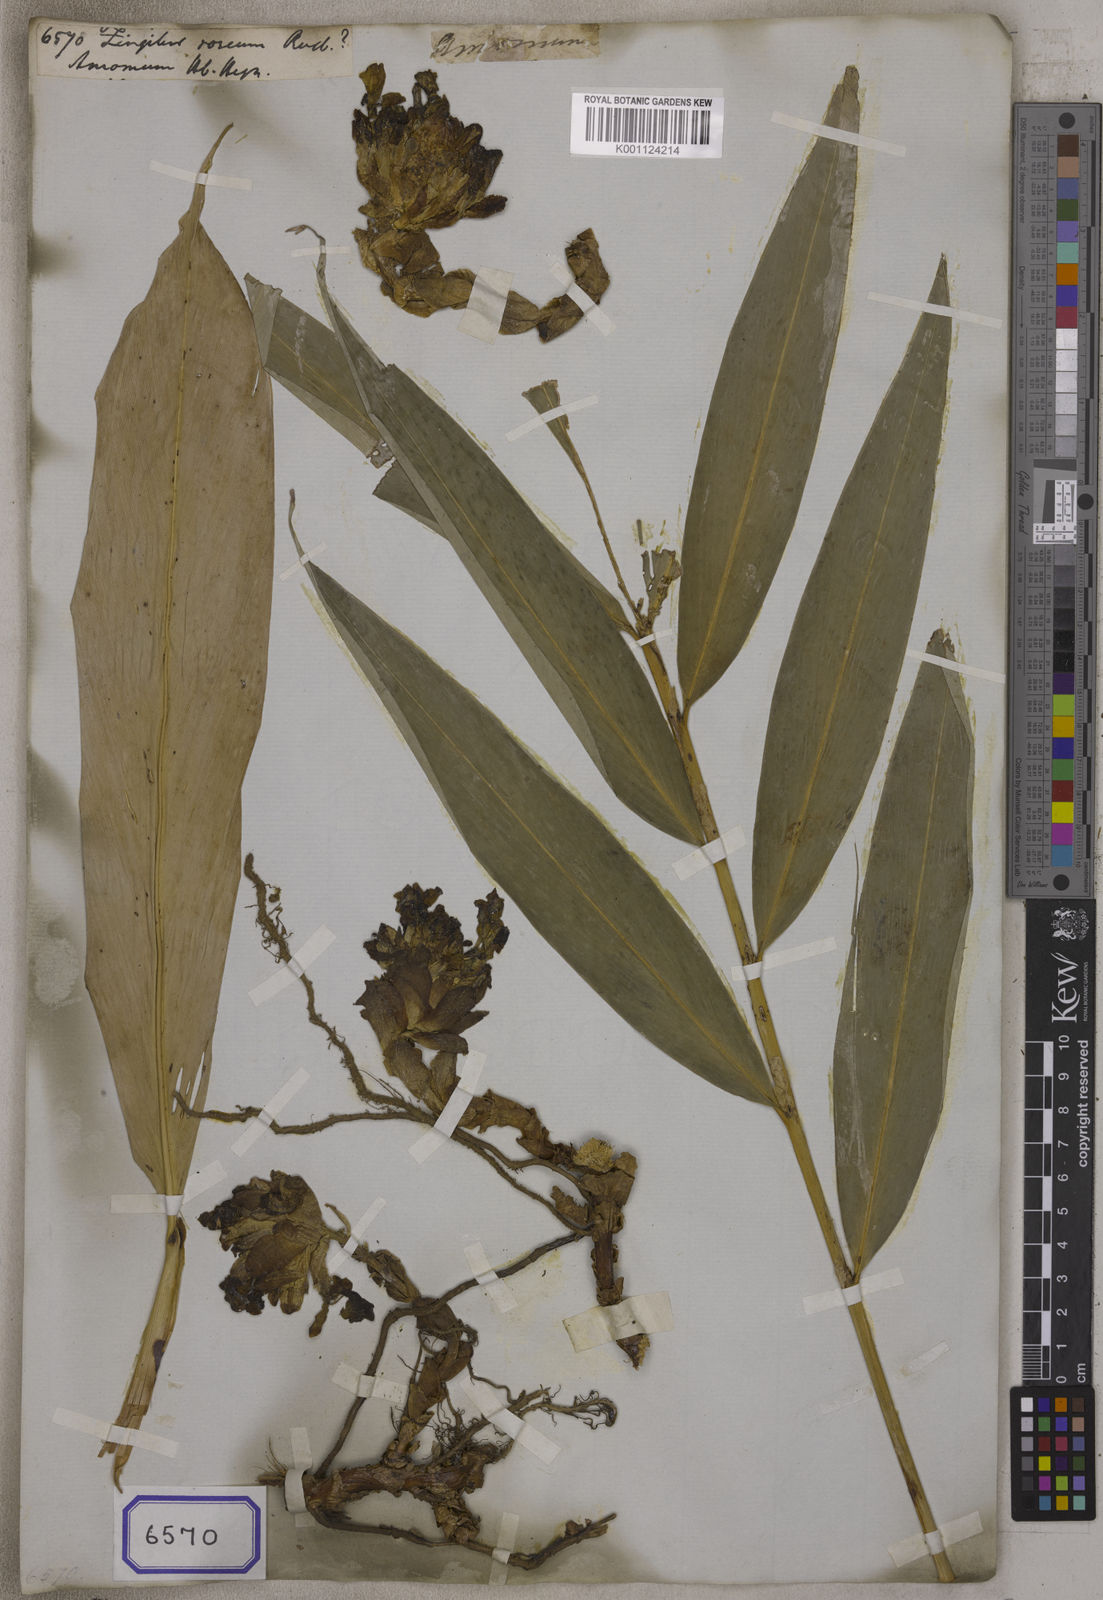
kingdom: Plantae
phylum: Tracheophyta
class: Liliopsida
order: Zingiberales
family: Zingiberaceae
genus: Zingiber
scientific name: Zingiber roseum
